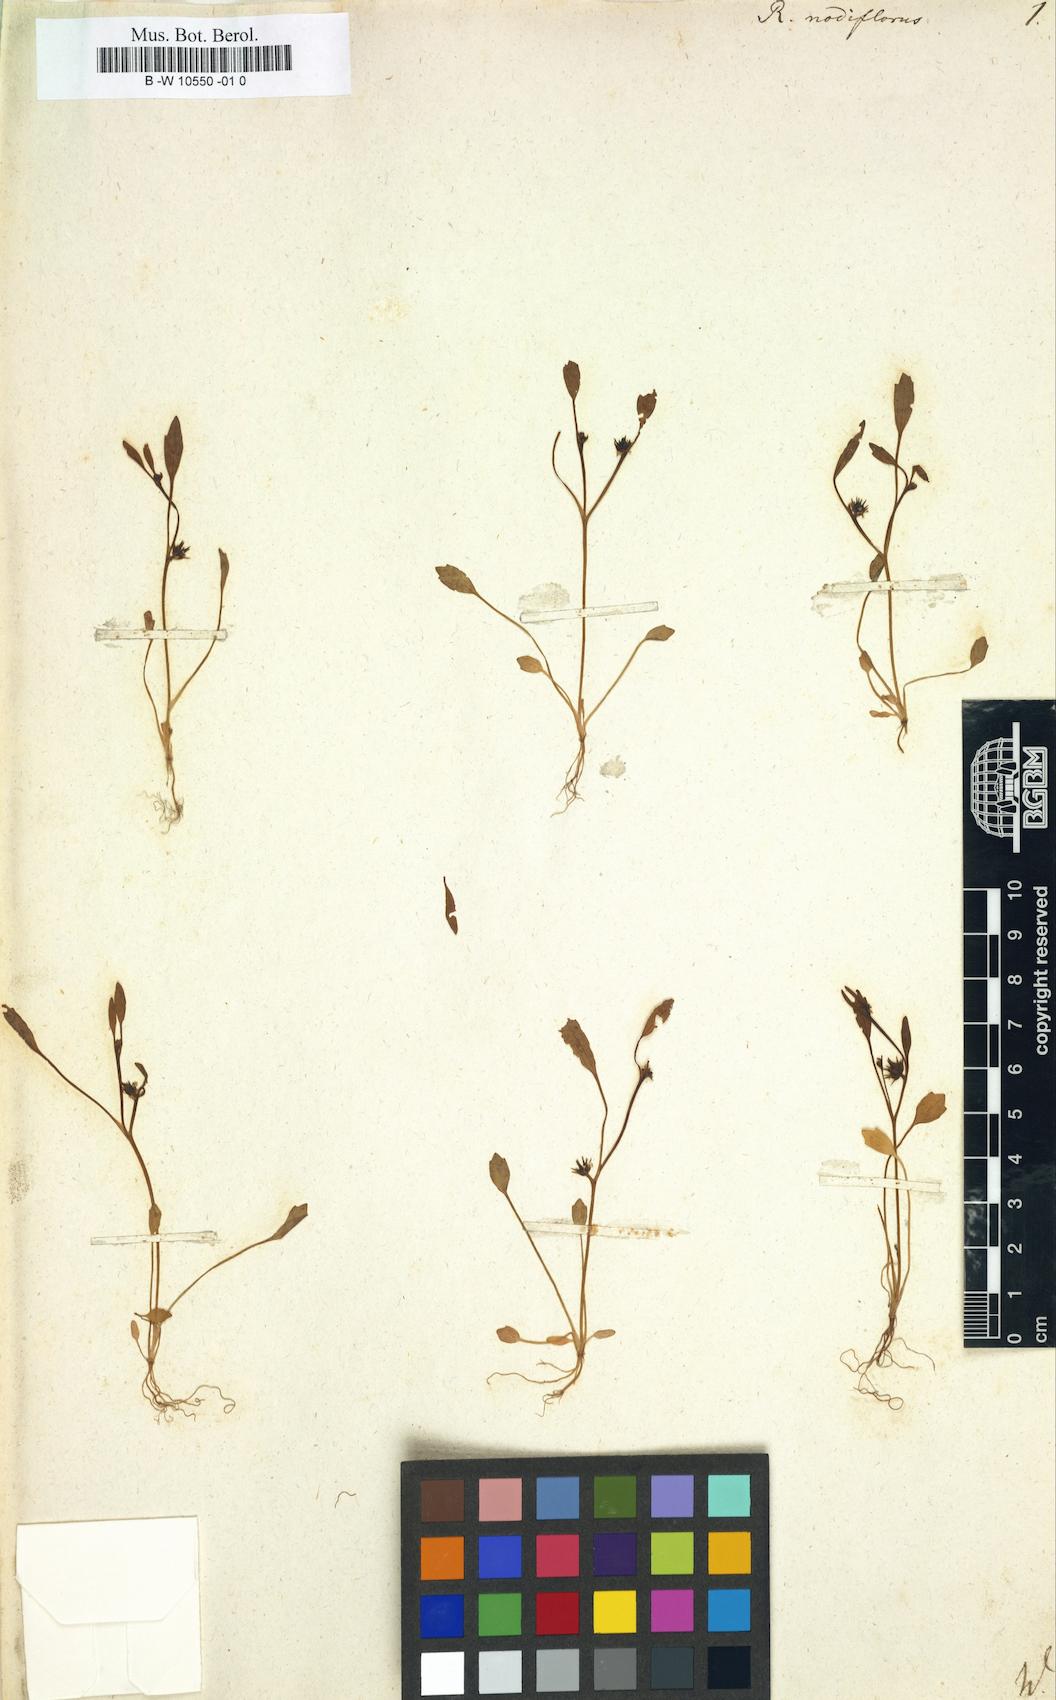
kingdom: Plantae
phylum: Tracheophyta
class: Magnoliopsida
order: Ranunculales
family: Ranunculaceae
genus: Ranunculus
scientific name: Ranunculus nodiflorus
